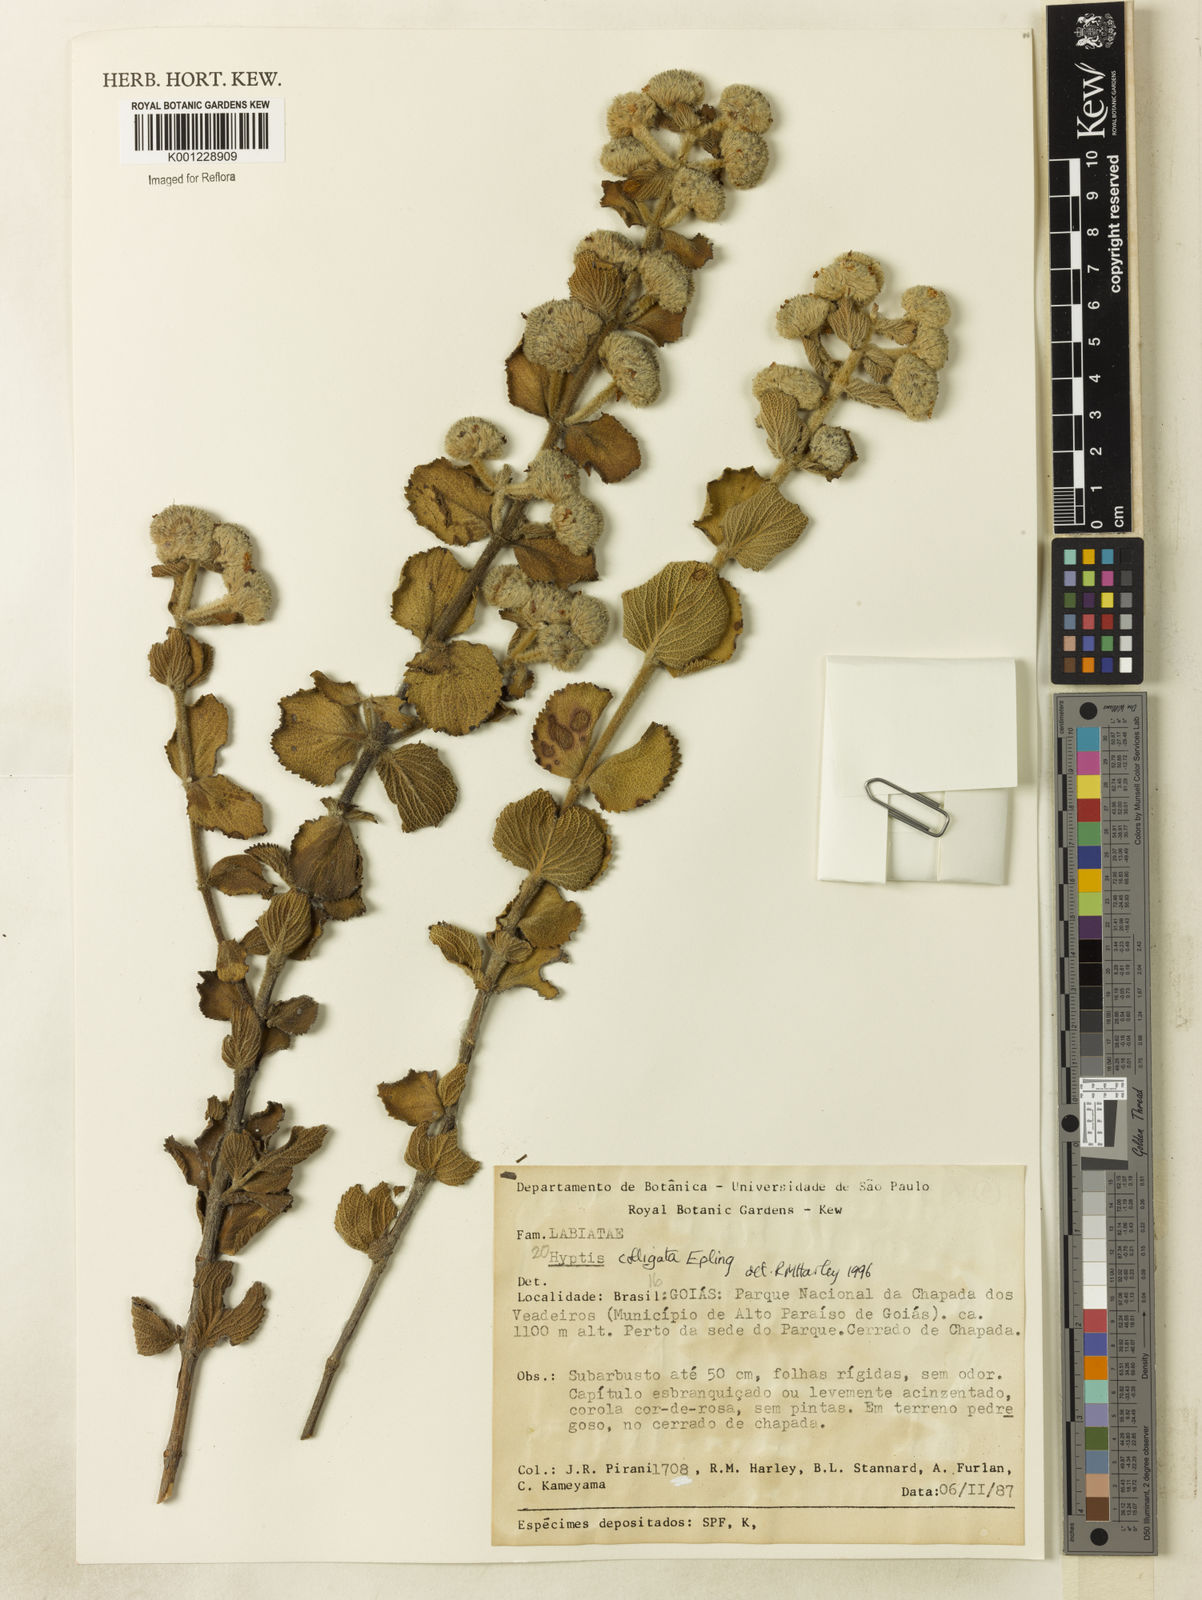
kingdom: Plantae
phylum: Tracheophyta
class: Magnoliopsida
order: Lamiales
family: Lamiaceae
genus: Hyptis
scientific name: Hyptis
